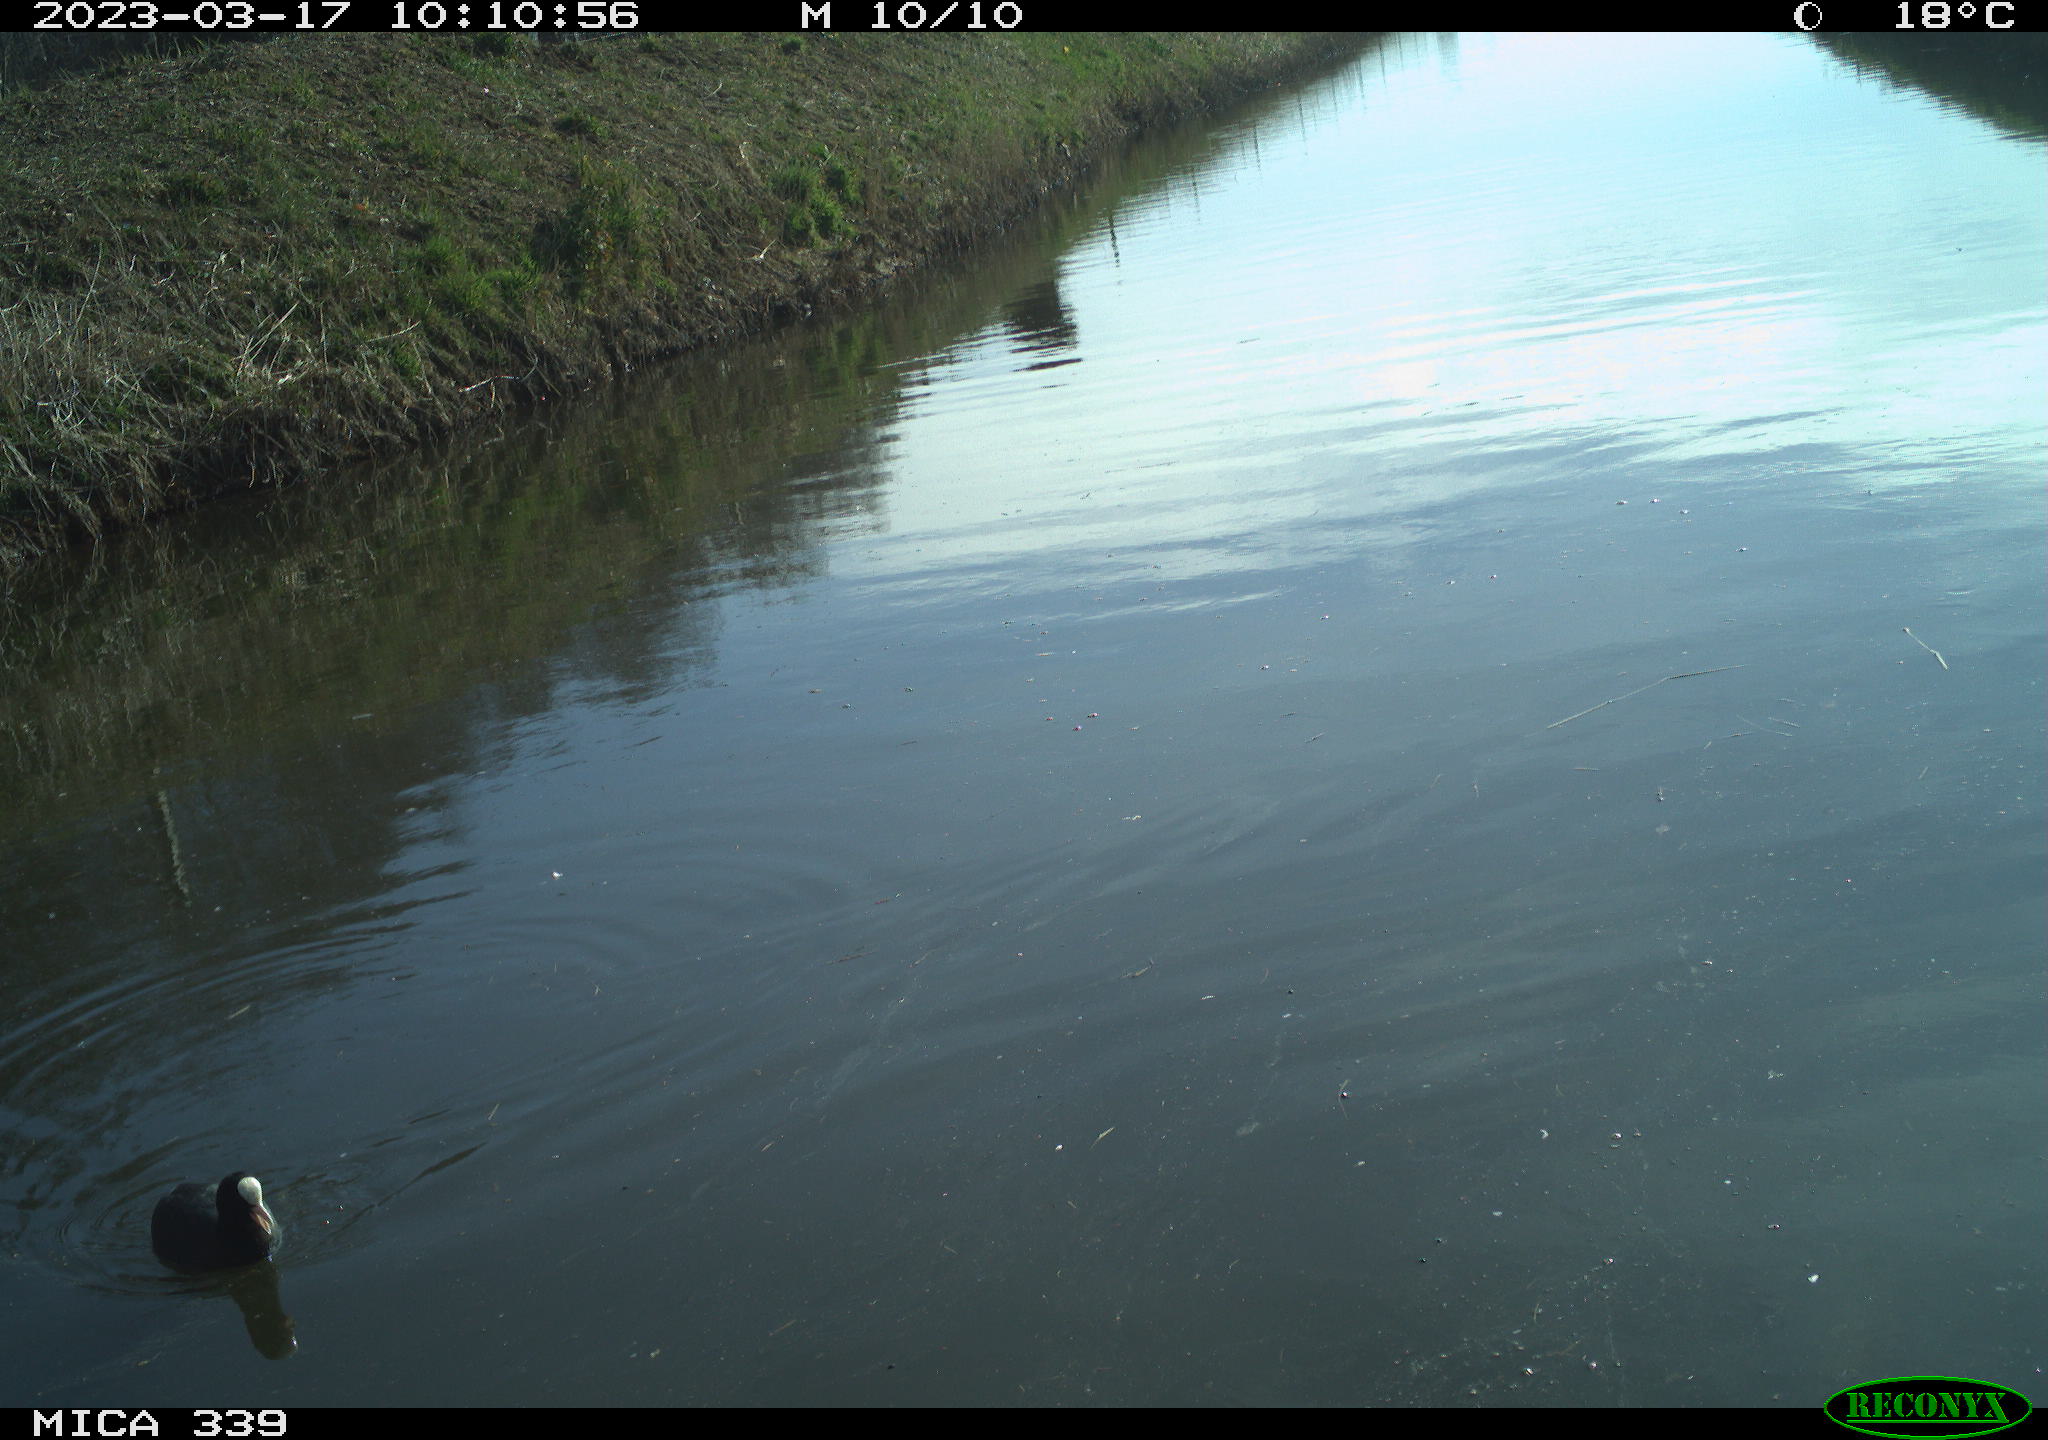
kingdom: Animalia
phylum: Chordata
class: Aves
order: Anseriformes
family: Anatidae
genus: Anas
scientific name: Anas
